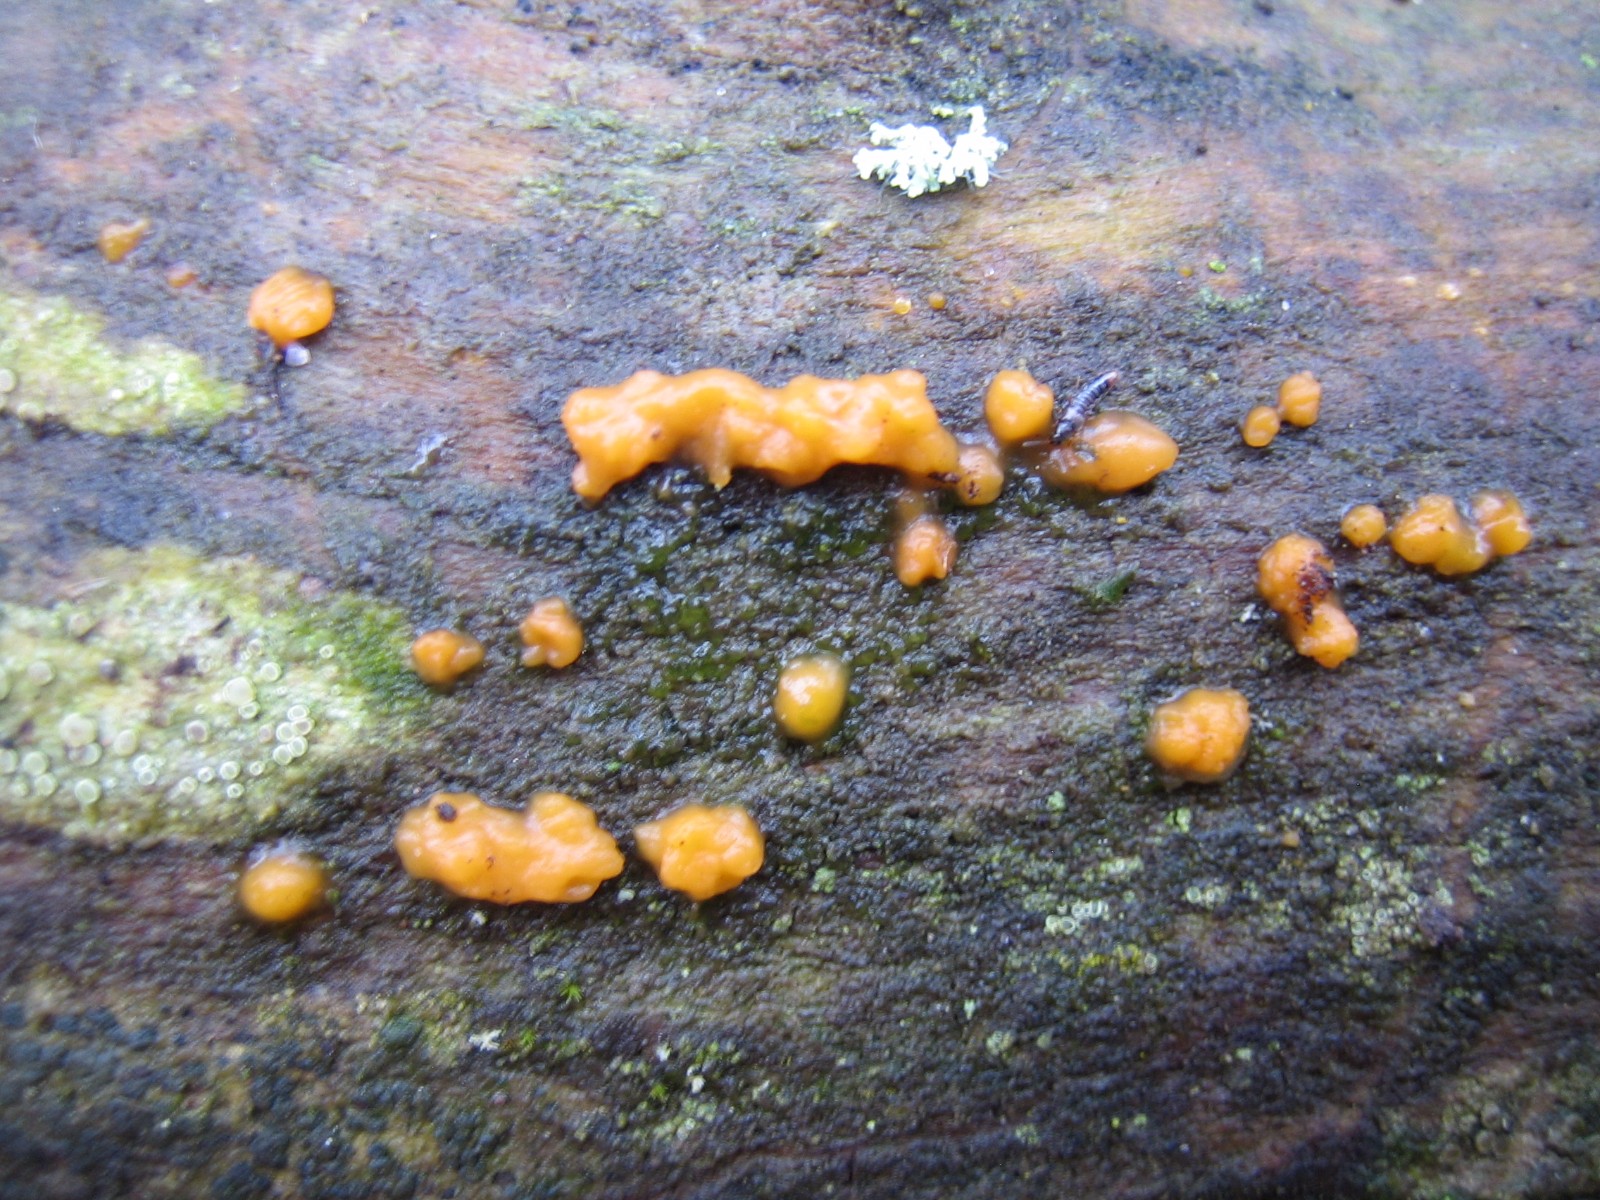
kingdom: Fungi
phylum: Basidiomycota
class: Dacrymycetes
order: Dacrymycetales
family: Dacrymycetaceae
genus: Dacrymyces
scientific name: Dacrymyces stillatus
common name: almindelig tåresvamp
